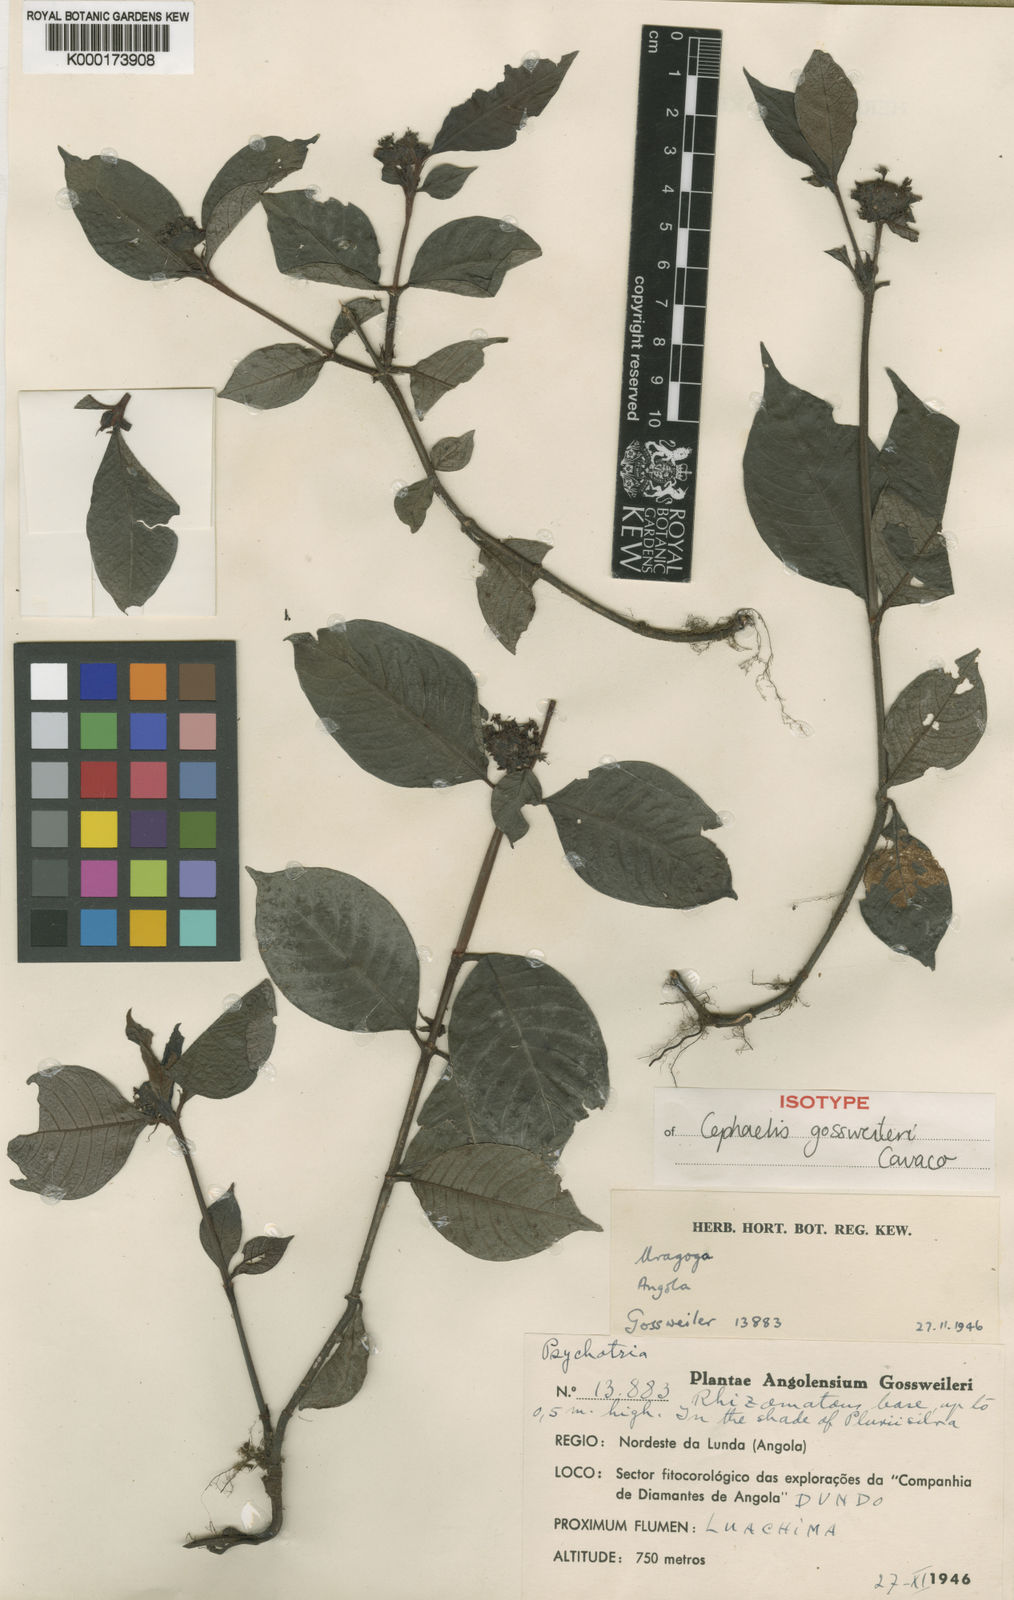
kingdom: Plantae
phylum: Tracheophyta
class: Magnoliopsida
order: Gentianales
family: Rubiaceae
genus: Psychotria
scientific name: Psychotria mwinilungae
